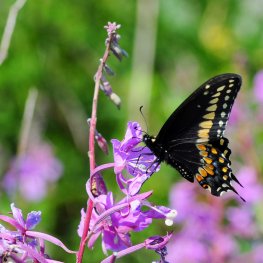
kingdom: Animalia
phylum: Arthropoda
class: Insecta
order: Lepidoptera
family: Papilionidae
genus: Papilio
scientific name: Papilio polyxenes
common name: Black Swallowtail
